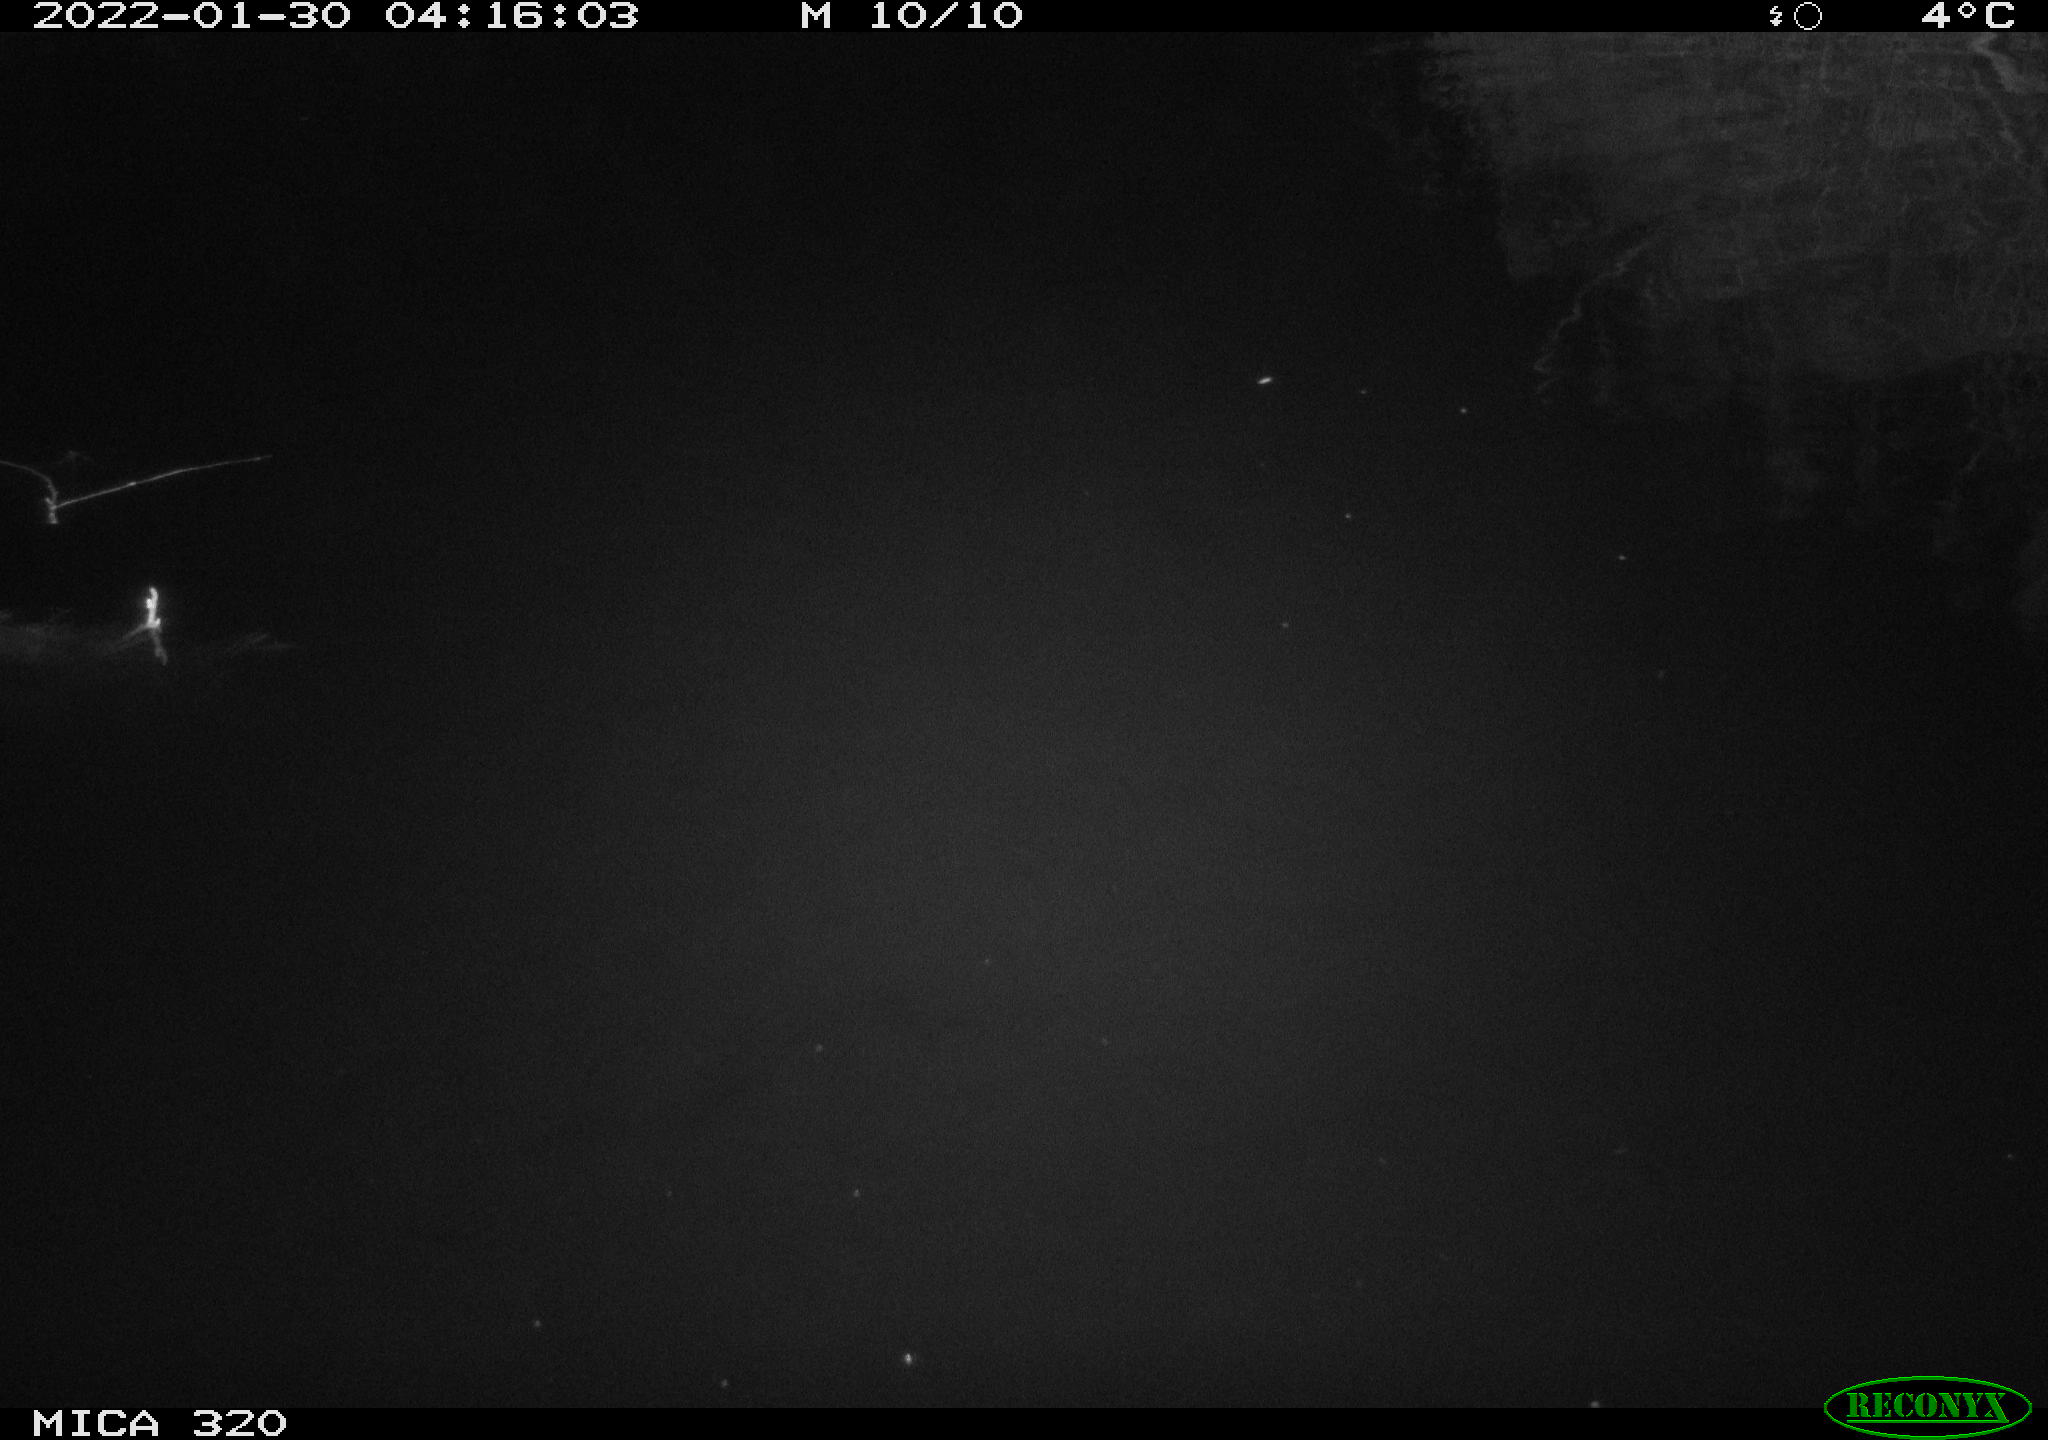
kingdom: Animalia
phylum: Chordata
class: Aves
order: Anseriformes
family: Anatidae
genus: Anas
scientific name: Anas
